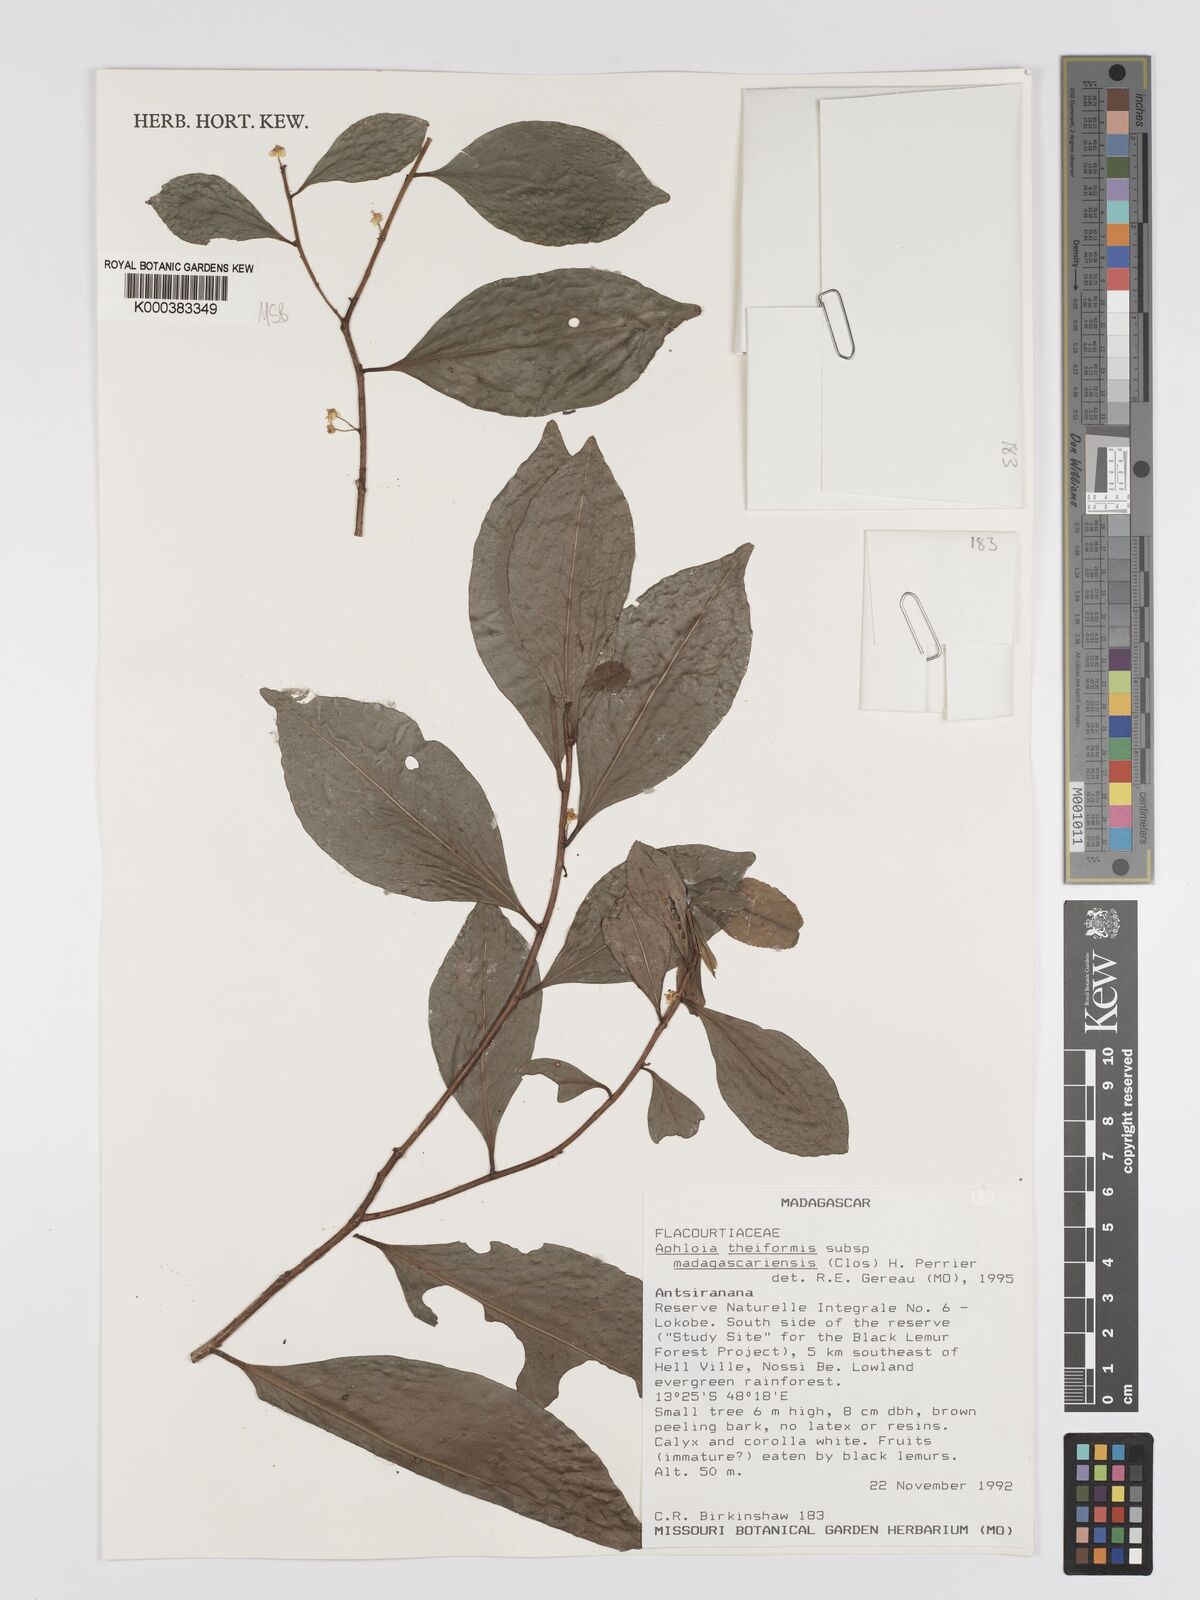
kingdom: Plantae
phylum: Tracheophyta
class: Magnoliopsida
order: Crossosomatales
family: Aphloiaceae
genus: Aphloia
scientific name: Aphloia theiformis
